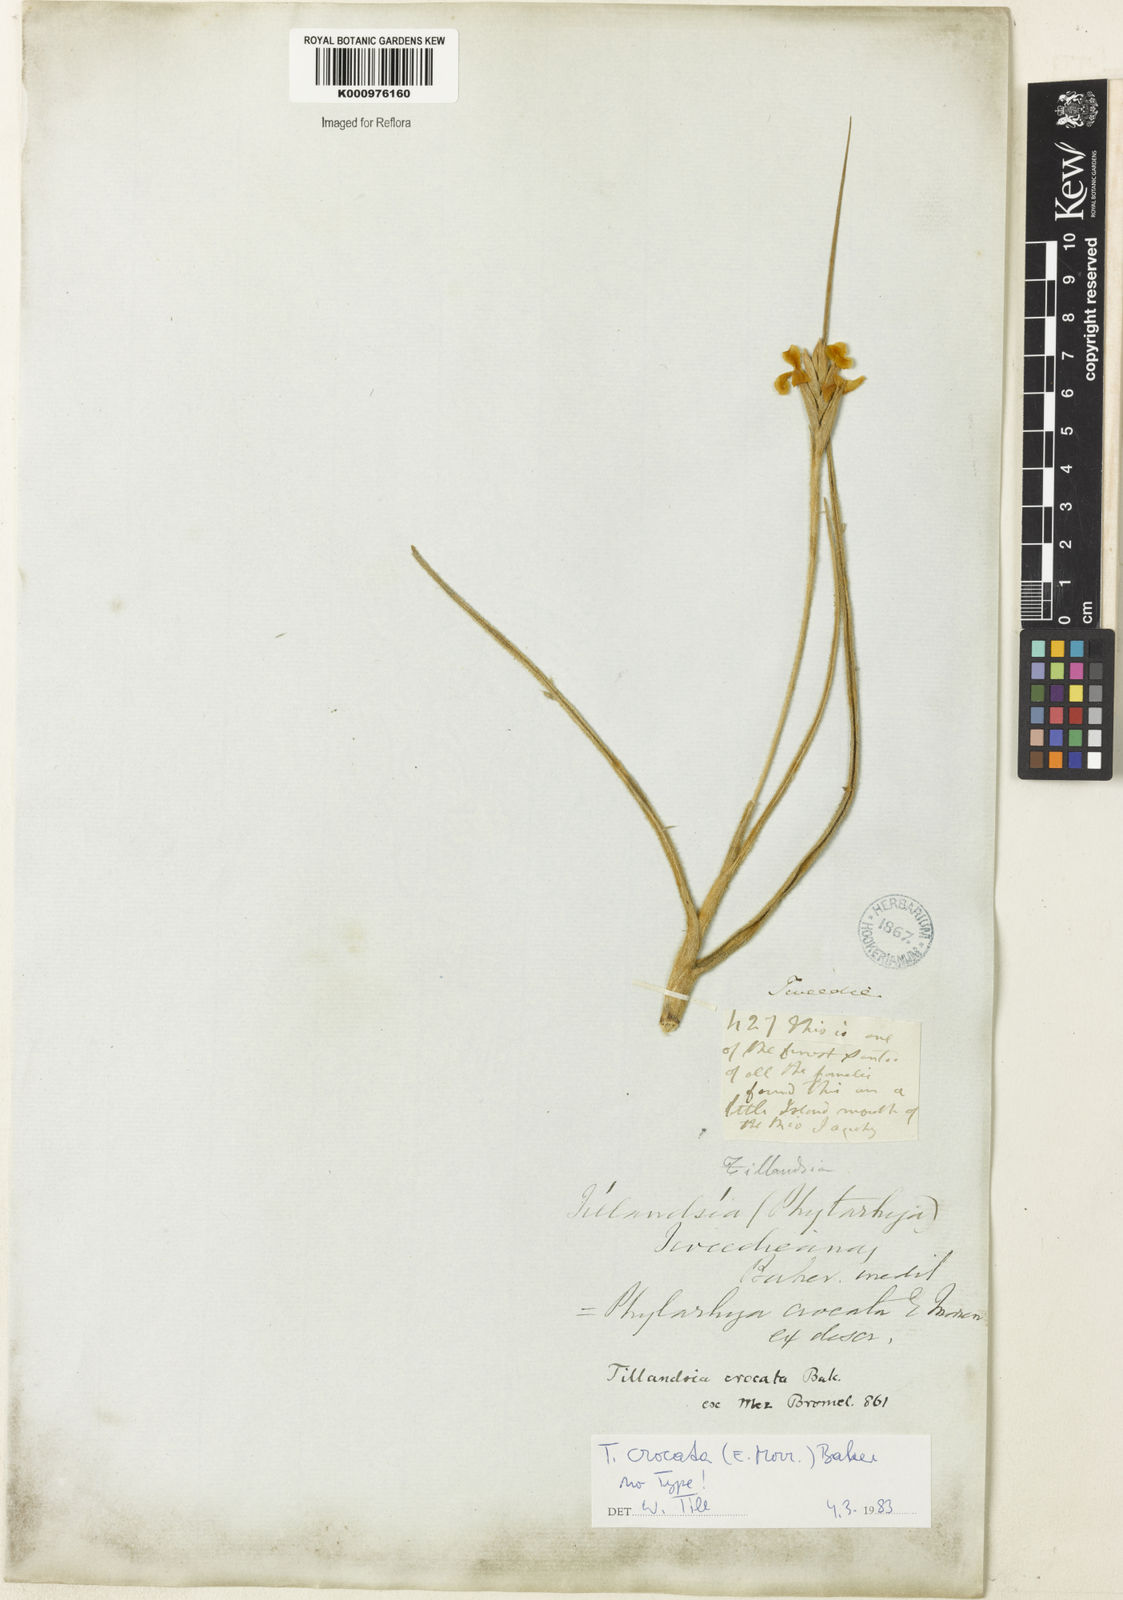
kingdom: Plantae
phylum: Tracheophyta
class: Liliopsida
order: Poales
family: Bromeliaceae
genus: Tillandsia
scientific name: Tillandsia
